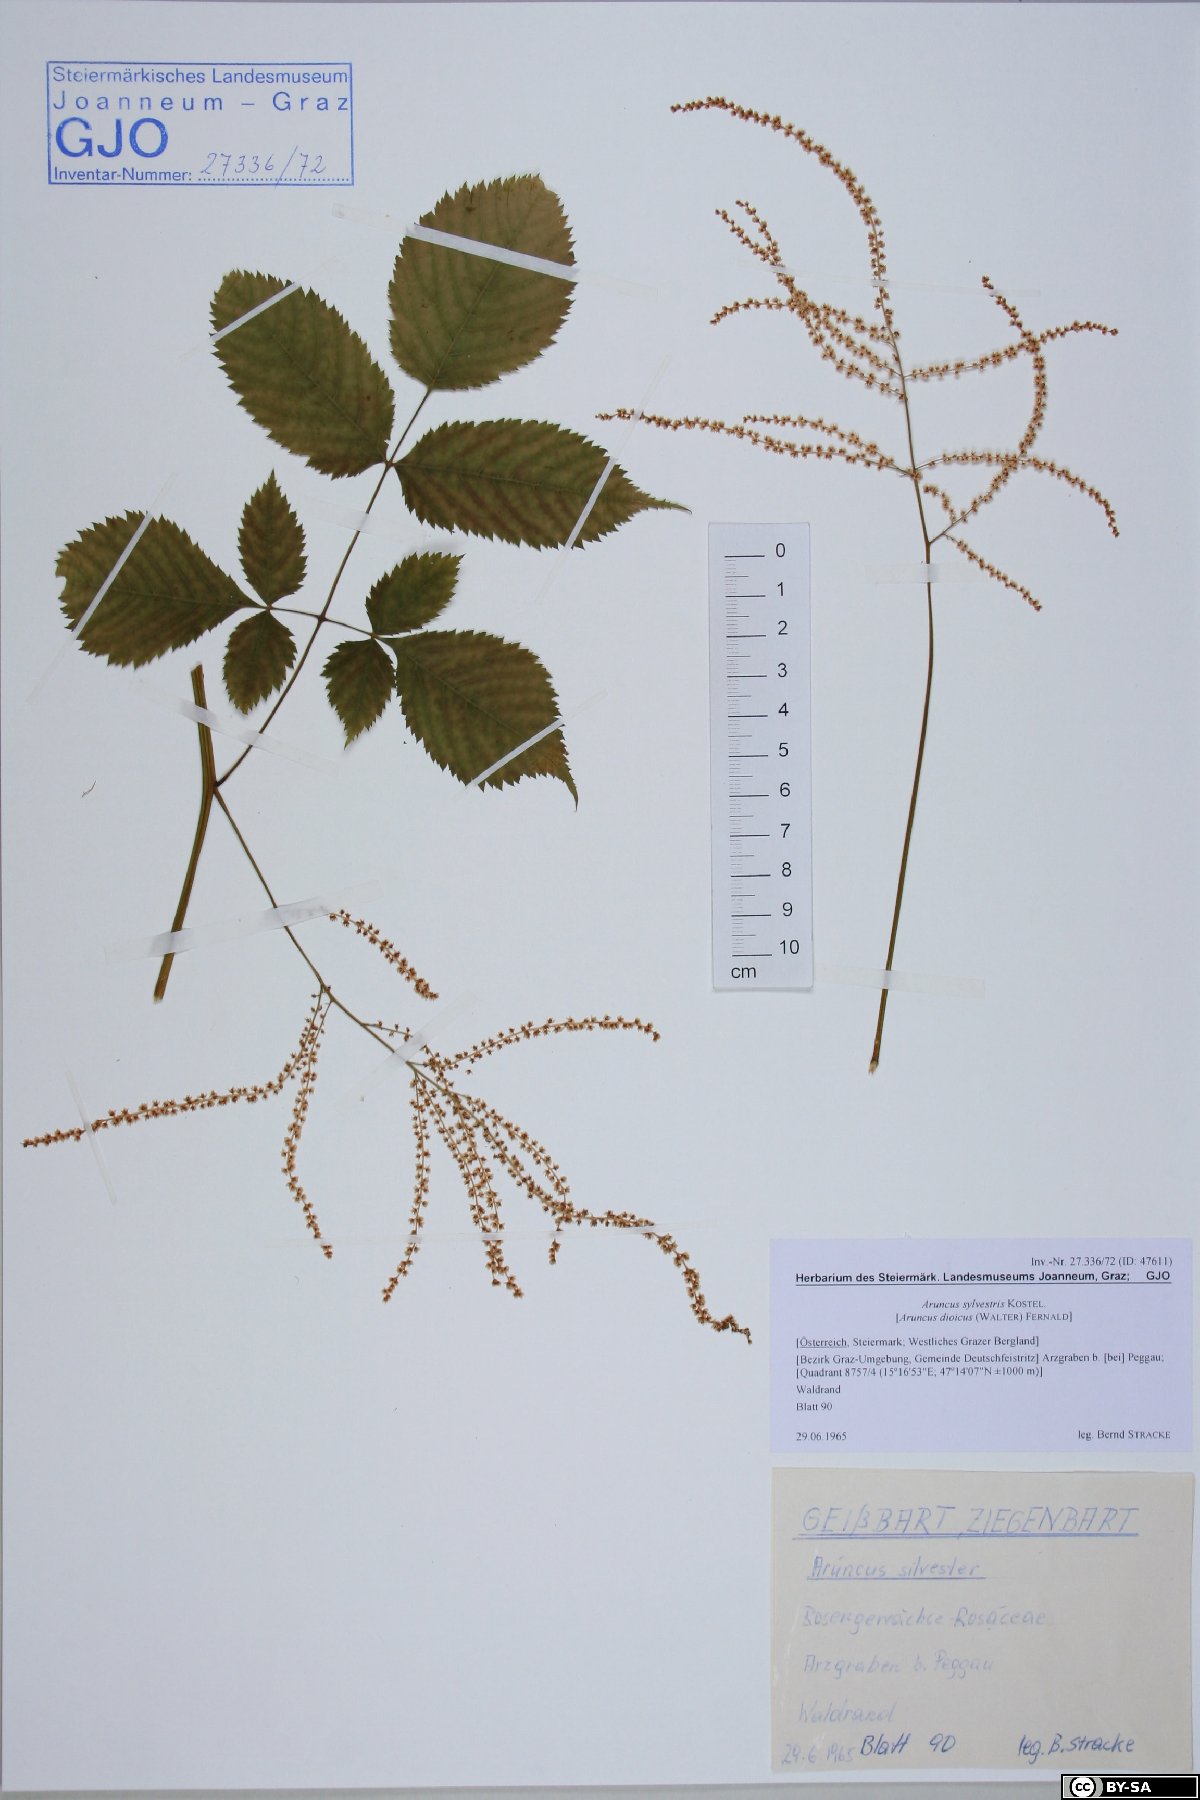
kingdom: Plantae
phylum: Tracheophyta
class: Magnoliopsida
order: Rosales
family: Rosaceae
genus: Aruncus
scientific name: Aruncus sylvester
